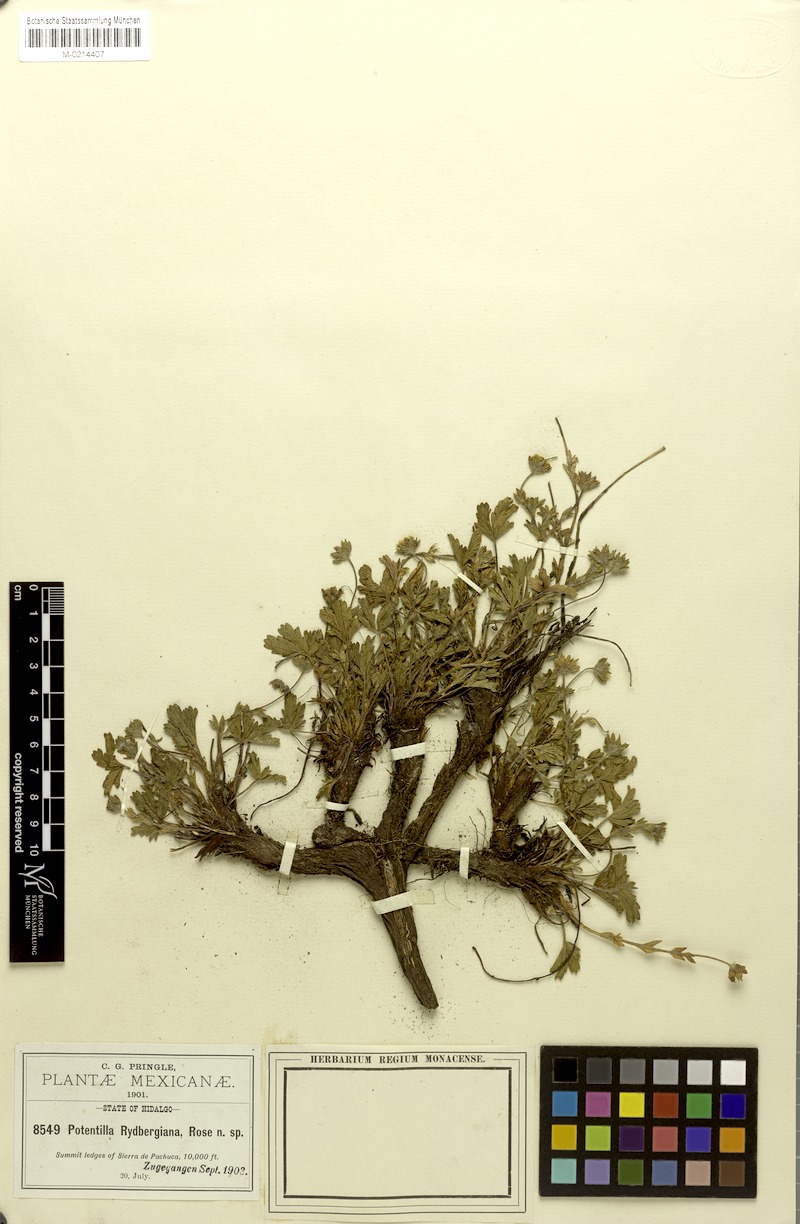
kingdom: Plantae
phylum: Tracheophyta
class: Magnoliopsida
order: Rosales
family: Rosaceae
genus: Potentilla
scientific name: Potentilla ranunculoides
